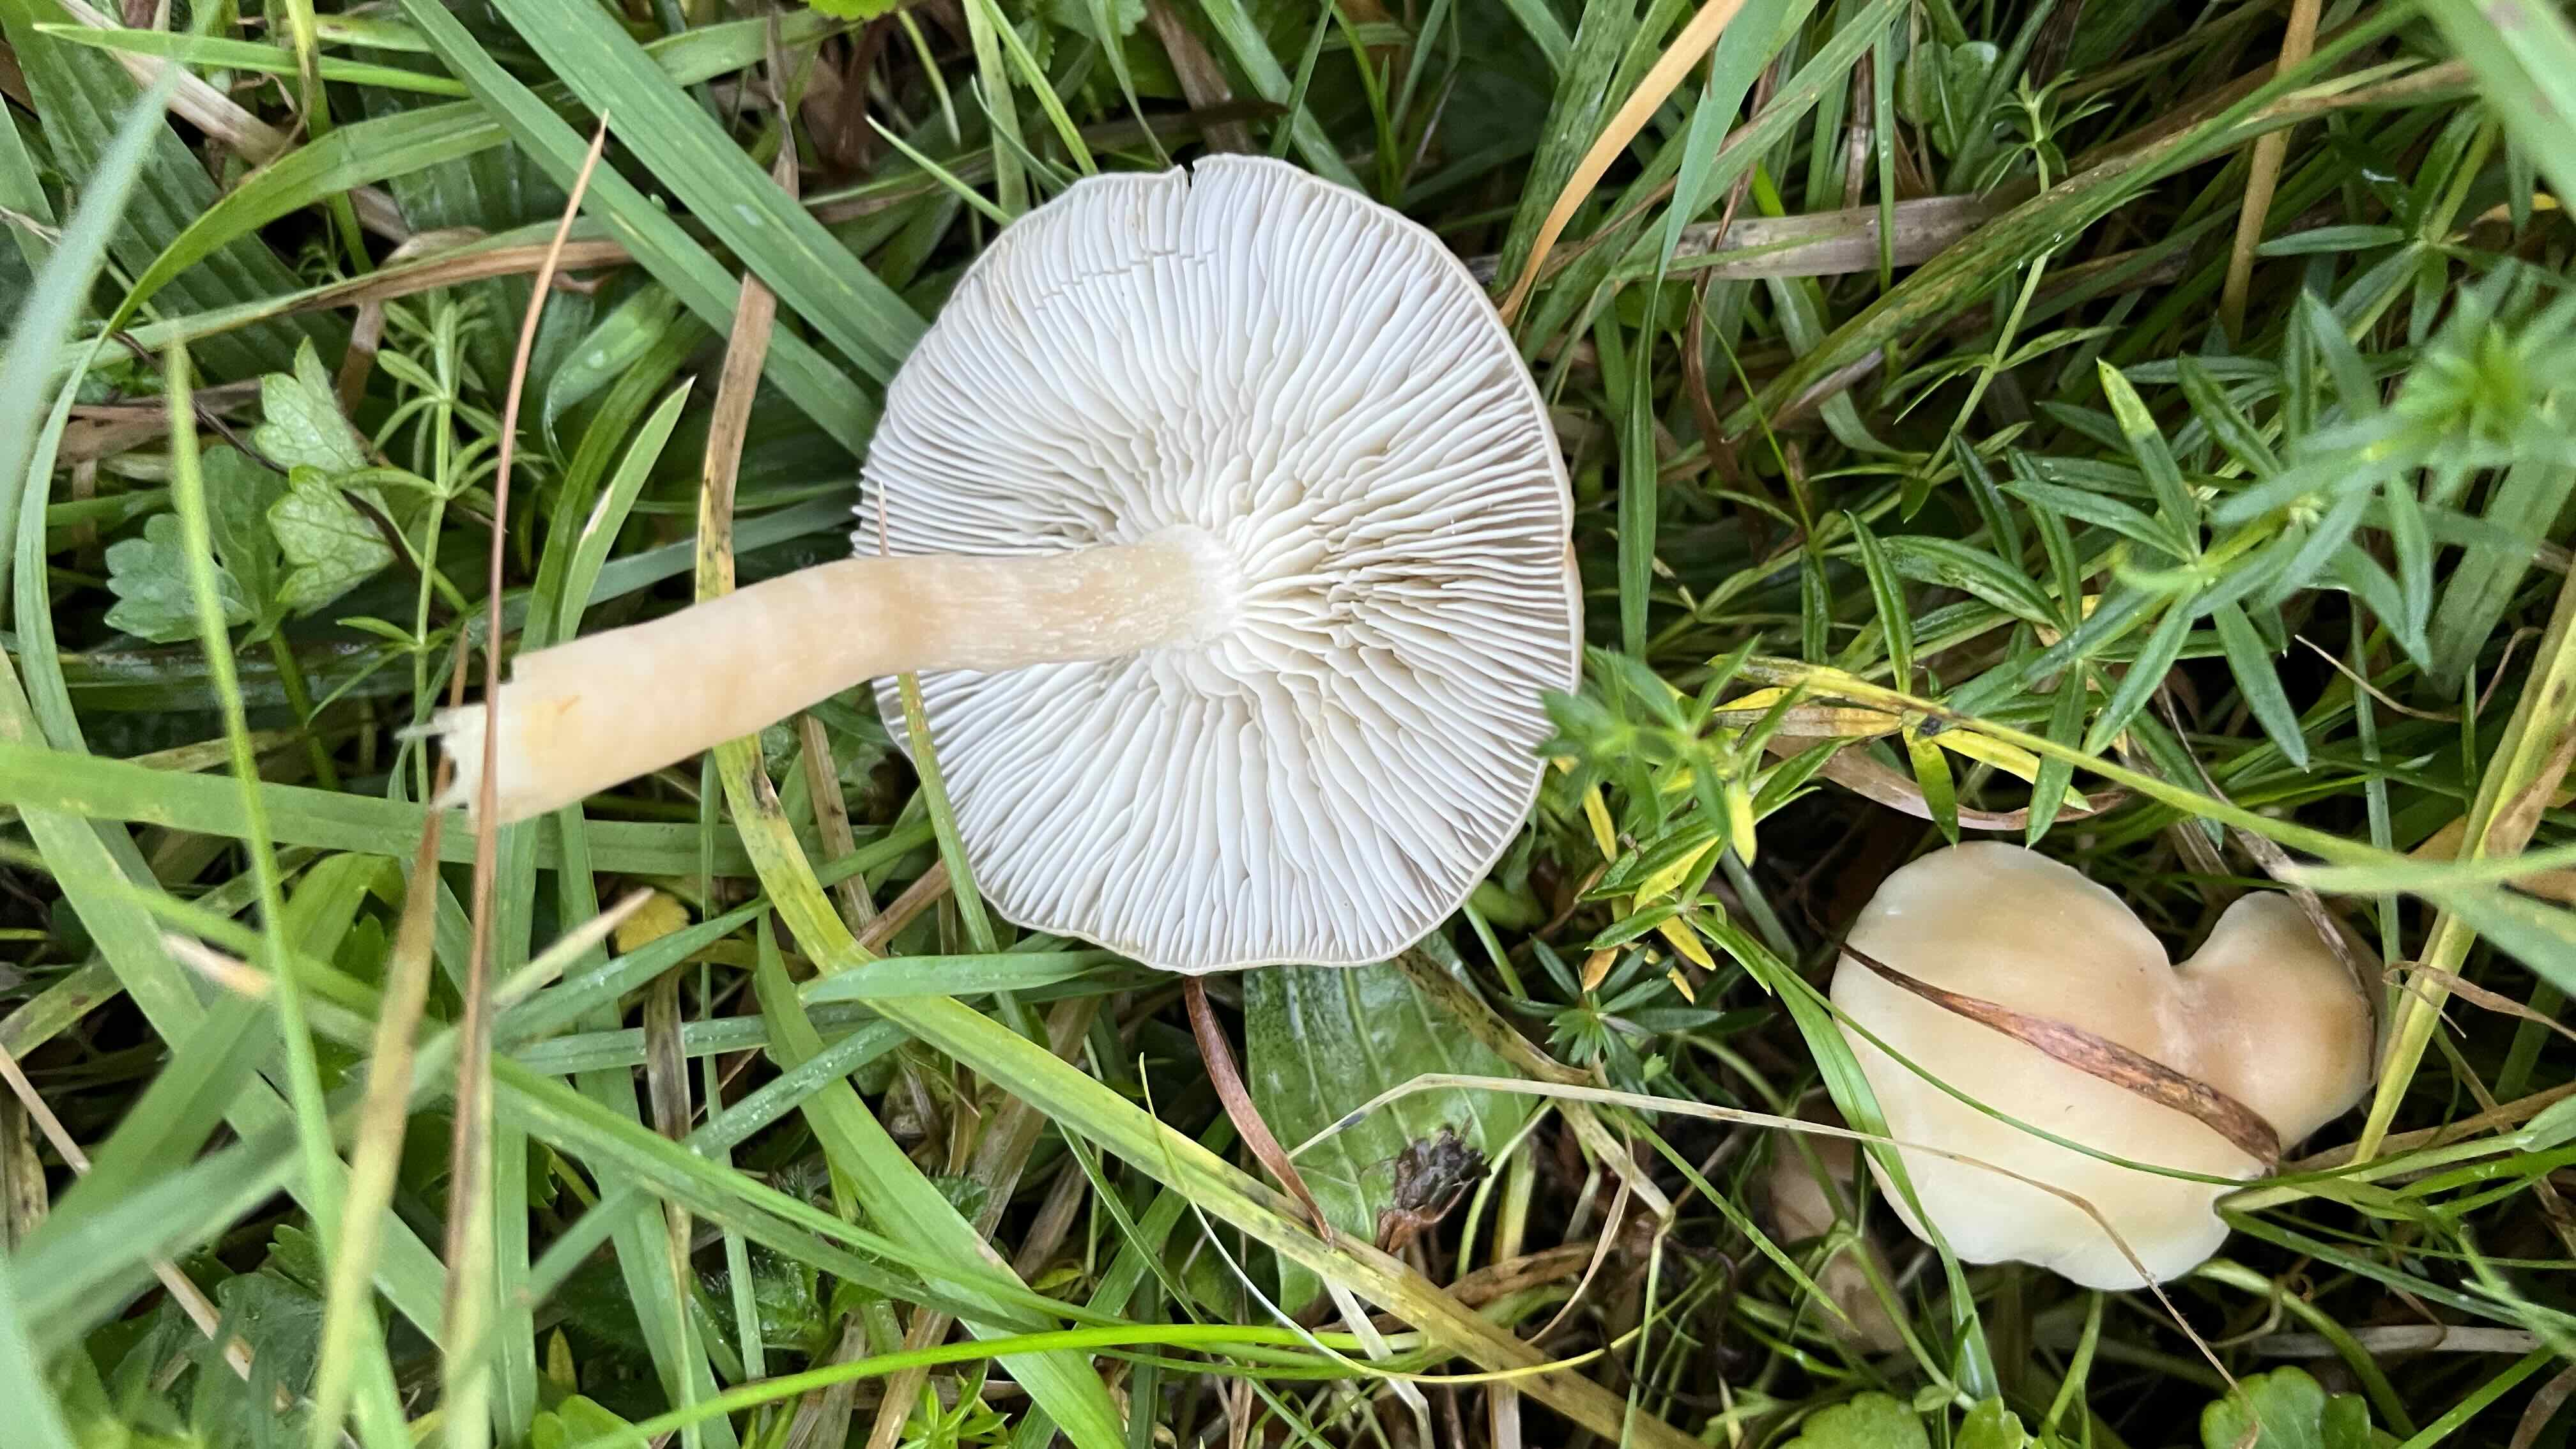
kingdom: Fungi
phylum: Basidiomycota
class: Agaricomycetes
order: Agaricales
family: Tricholomataceae
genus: Clitocybe
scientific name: Clitocybe
